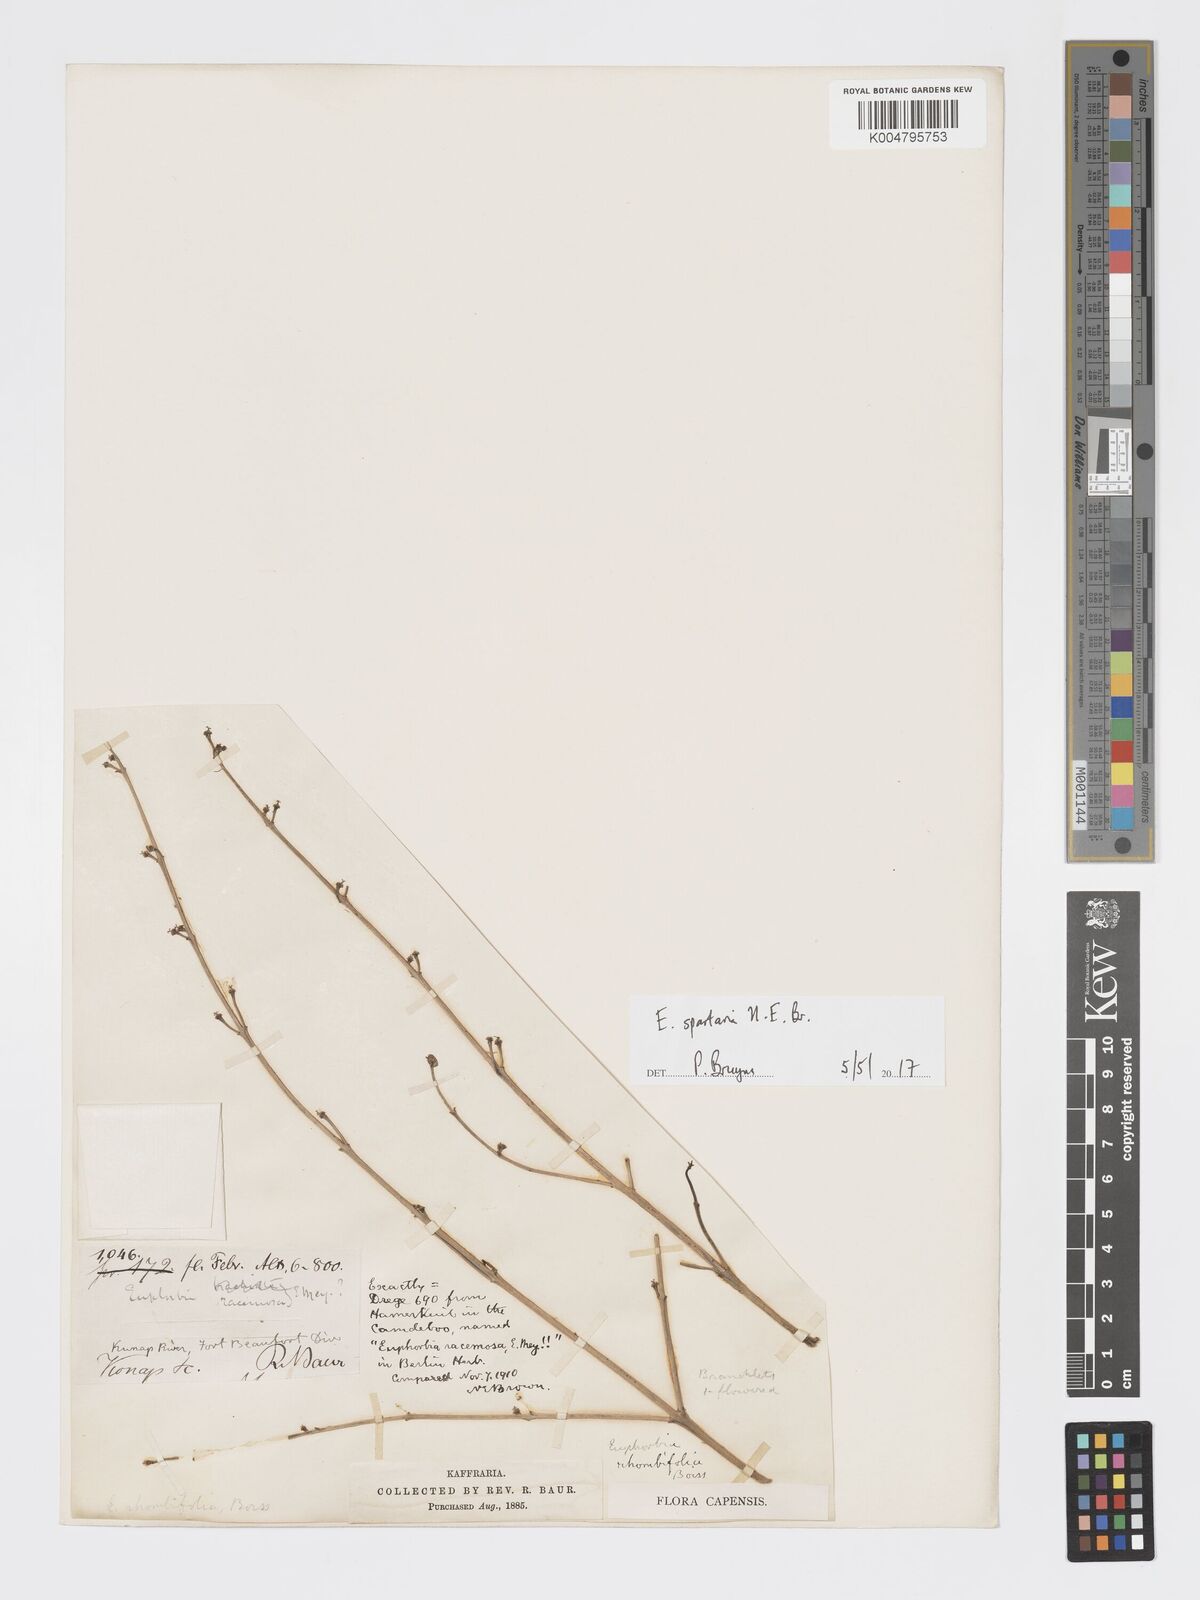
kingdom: Plantae
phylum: Tracheophyta
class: Magnoliopsida
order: Malpighiales
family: Euphorbiaceae
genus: Euphorbia
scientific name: Euphorbia spartaria
